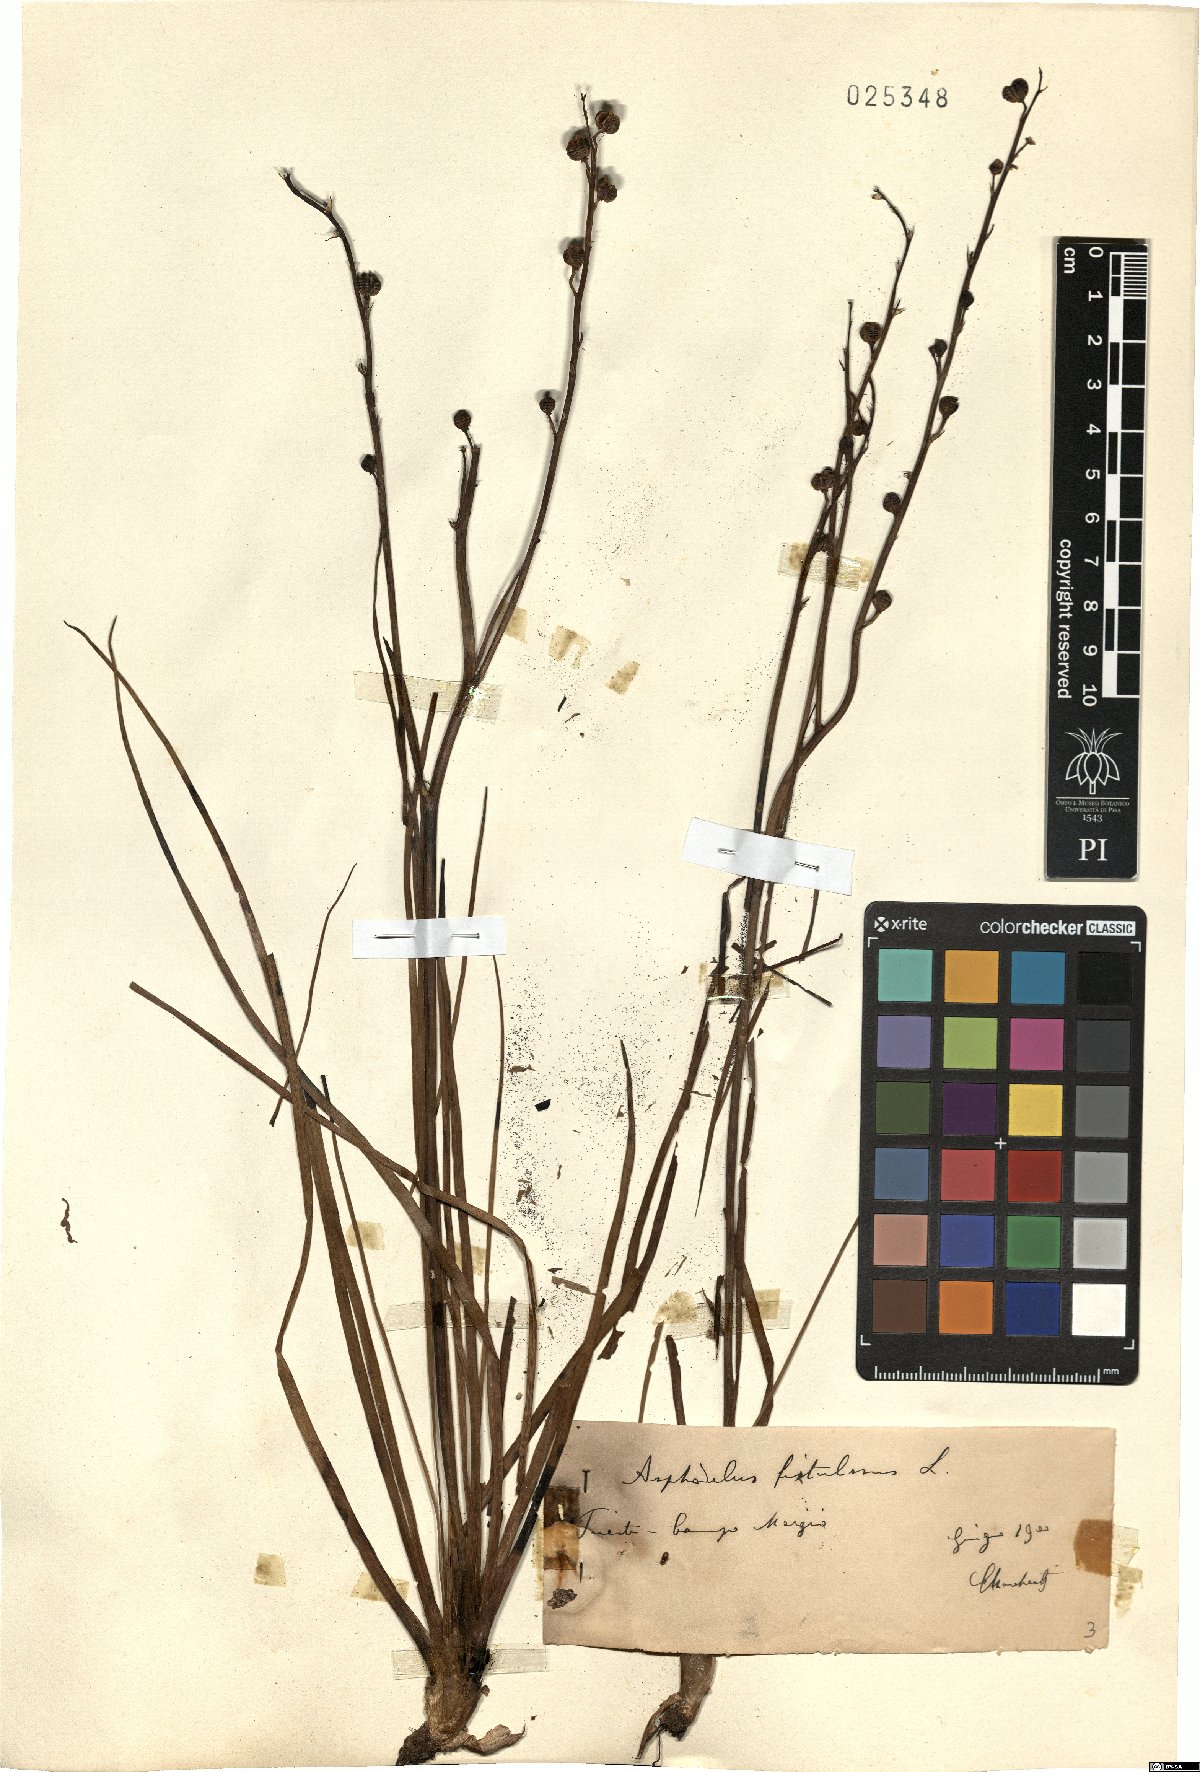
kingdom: Plantae
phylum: Tracheophyta
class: Liliopsida
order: Asparagales
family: Asphodelaceae
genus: Asphodelus
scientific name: Asphodelus fistulosus
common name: Onionweed
